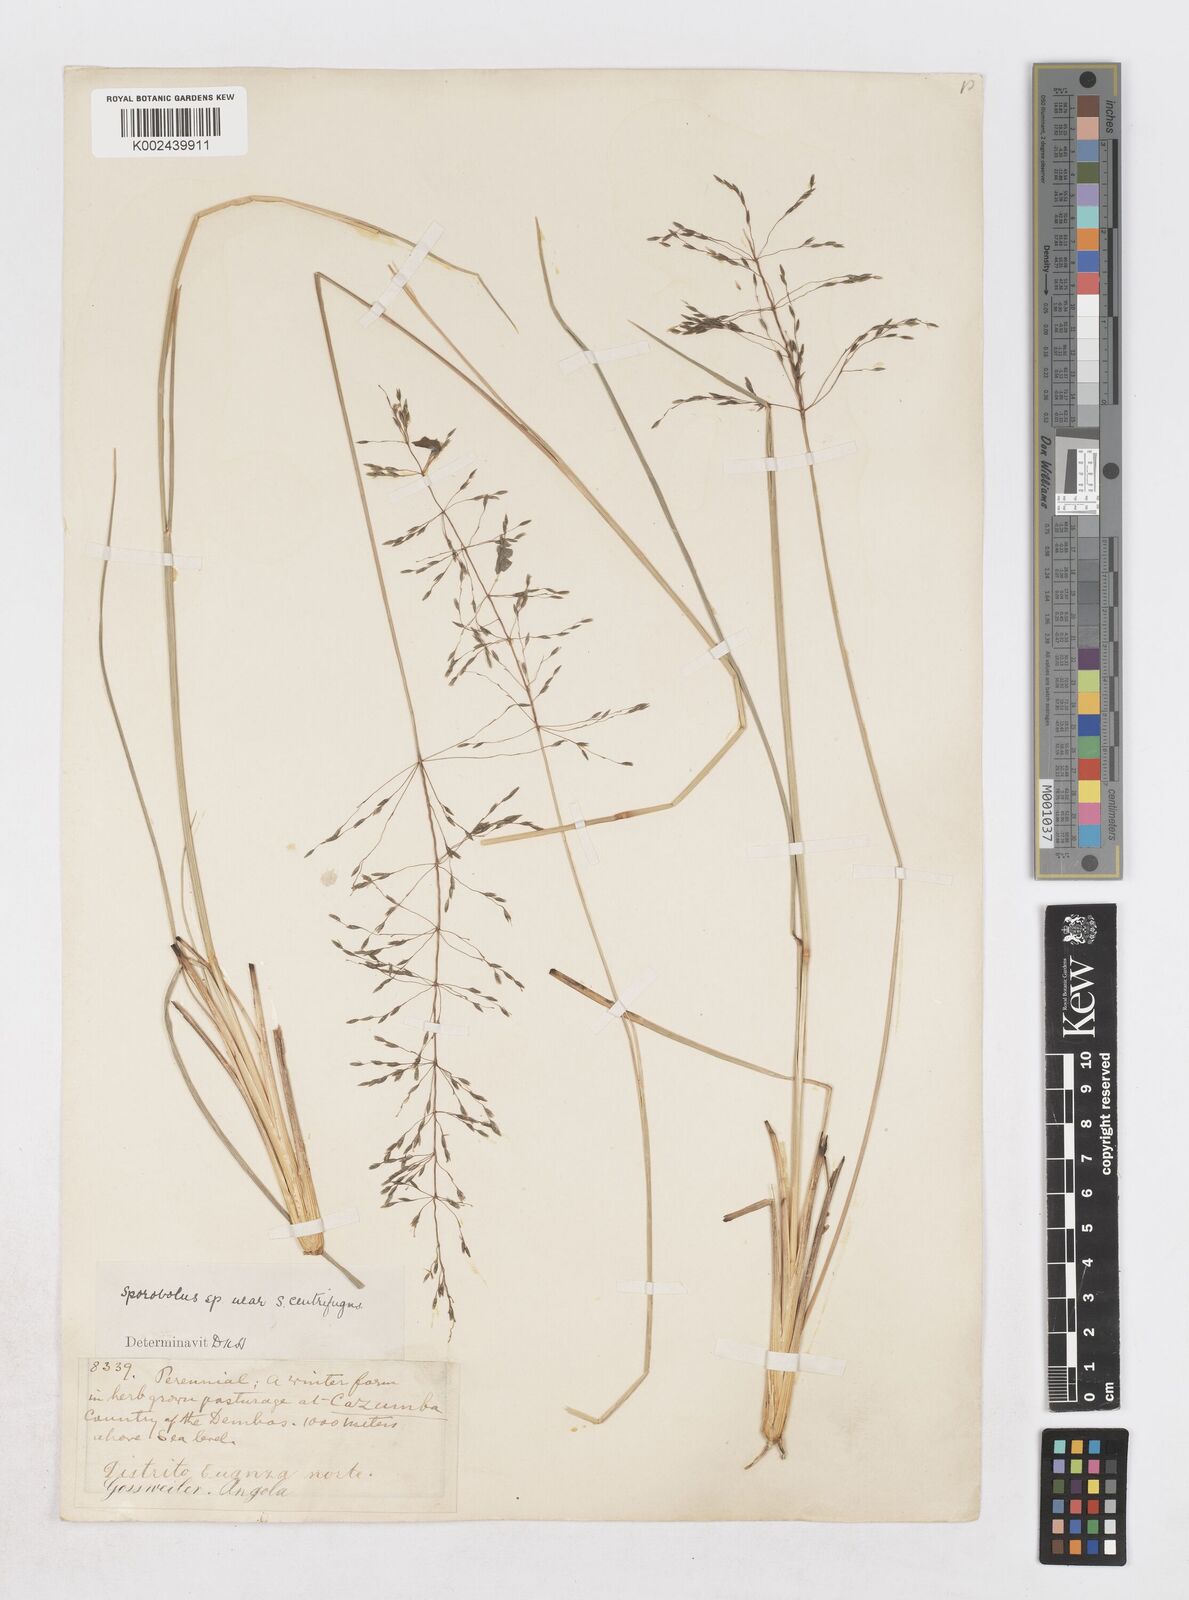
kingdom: Plantae
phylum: Tracheophyta
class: Liliopsida
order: Poales
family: Poaceae
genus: Sporobolus
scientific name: Sporobolus subulatus
